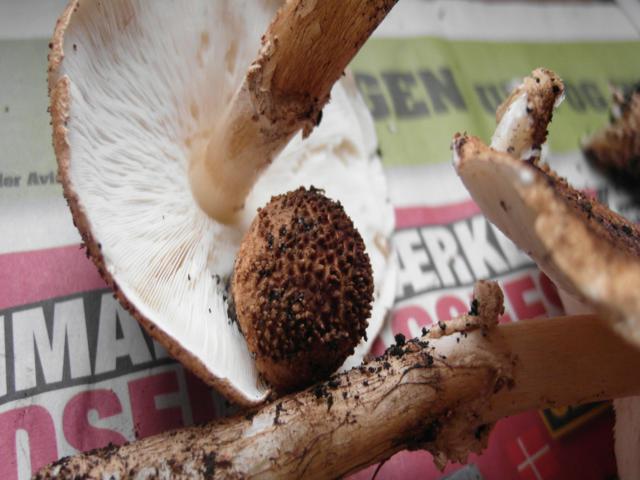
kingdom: Fungi
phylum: Basidiomycota
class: Agaricomycetes
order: Agaricales
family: Agaricaceae
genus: Echinoderma
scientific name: Echinoderma asperum
